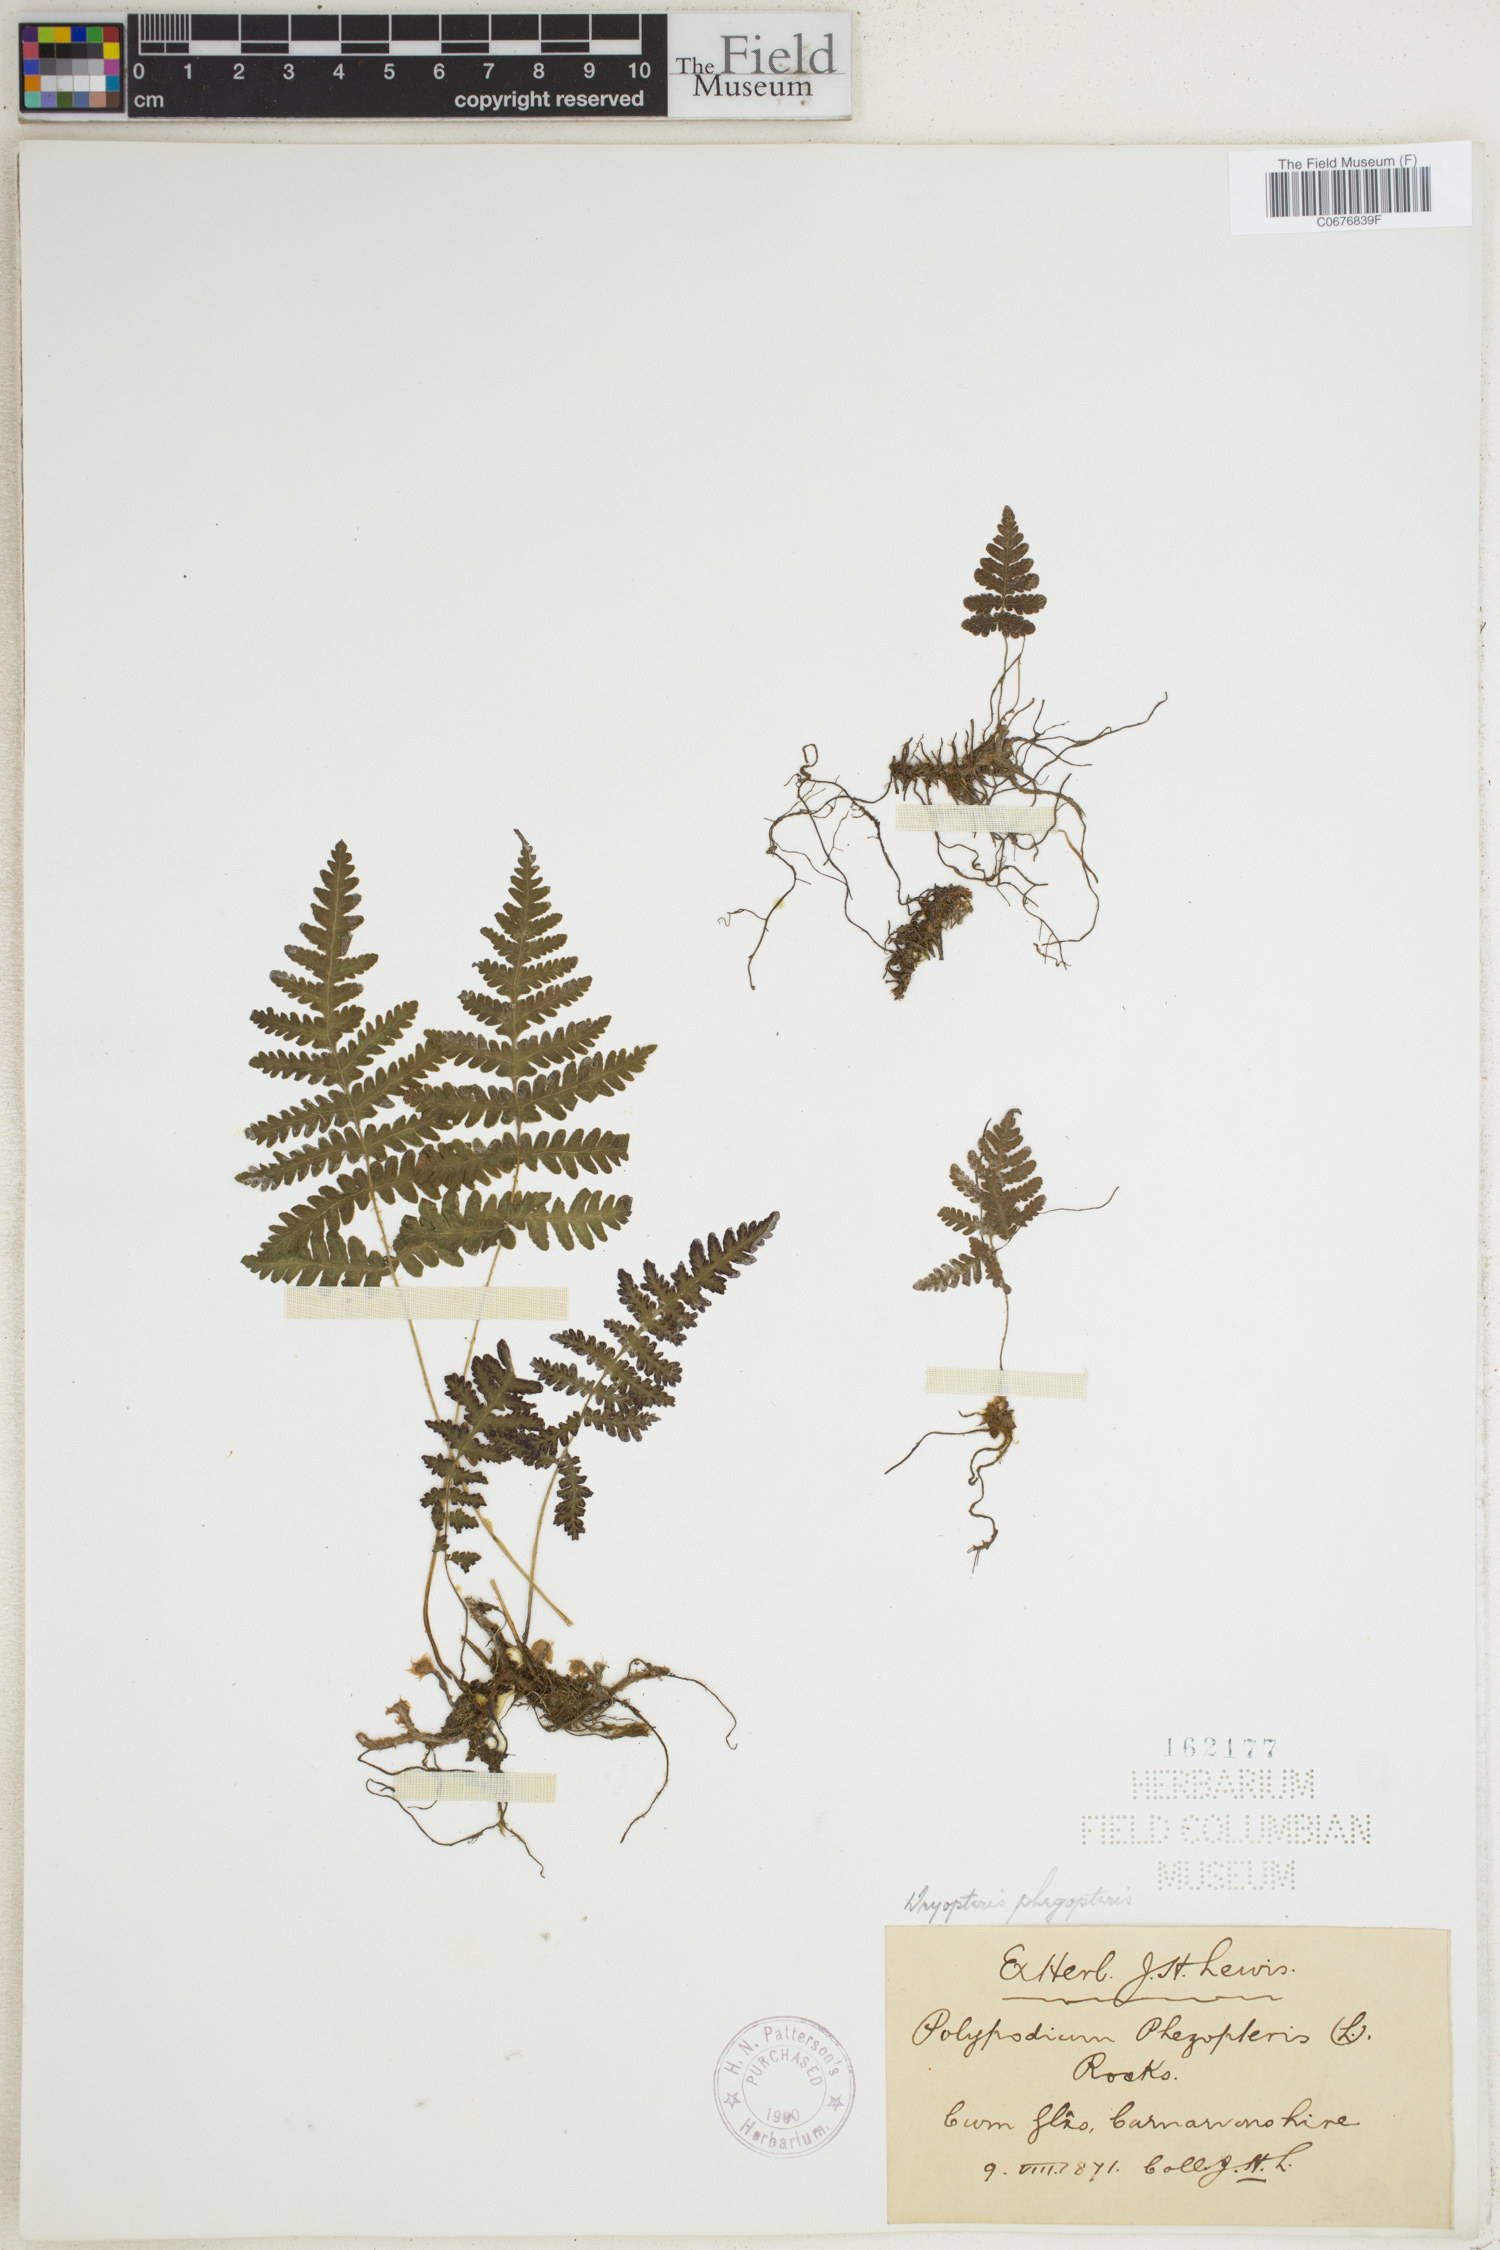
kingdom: Plantae
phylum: Tracheophyta
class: Polypodiopsida
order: Polypodiales
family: Thelypteridaceae
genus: Phegopteris
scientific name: Phegopteris connectilis
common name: Beech fern
